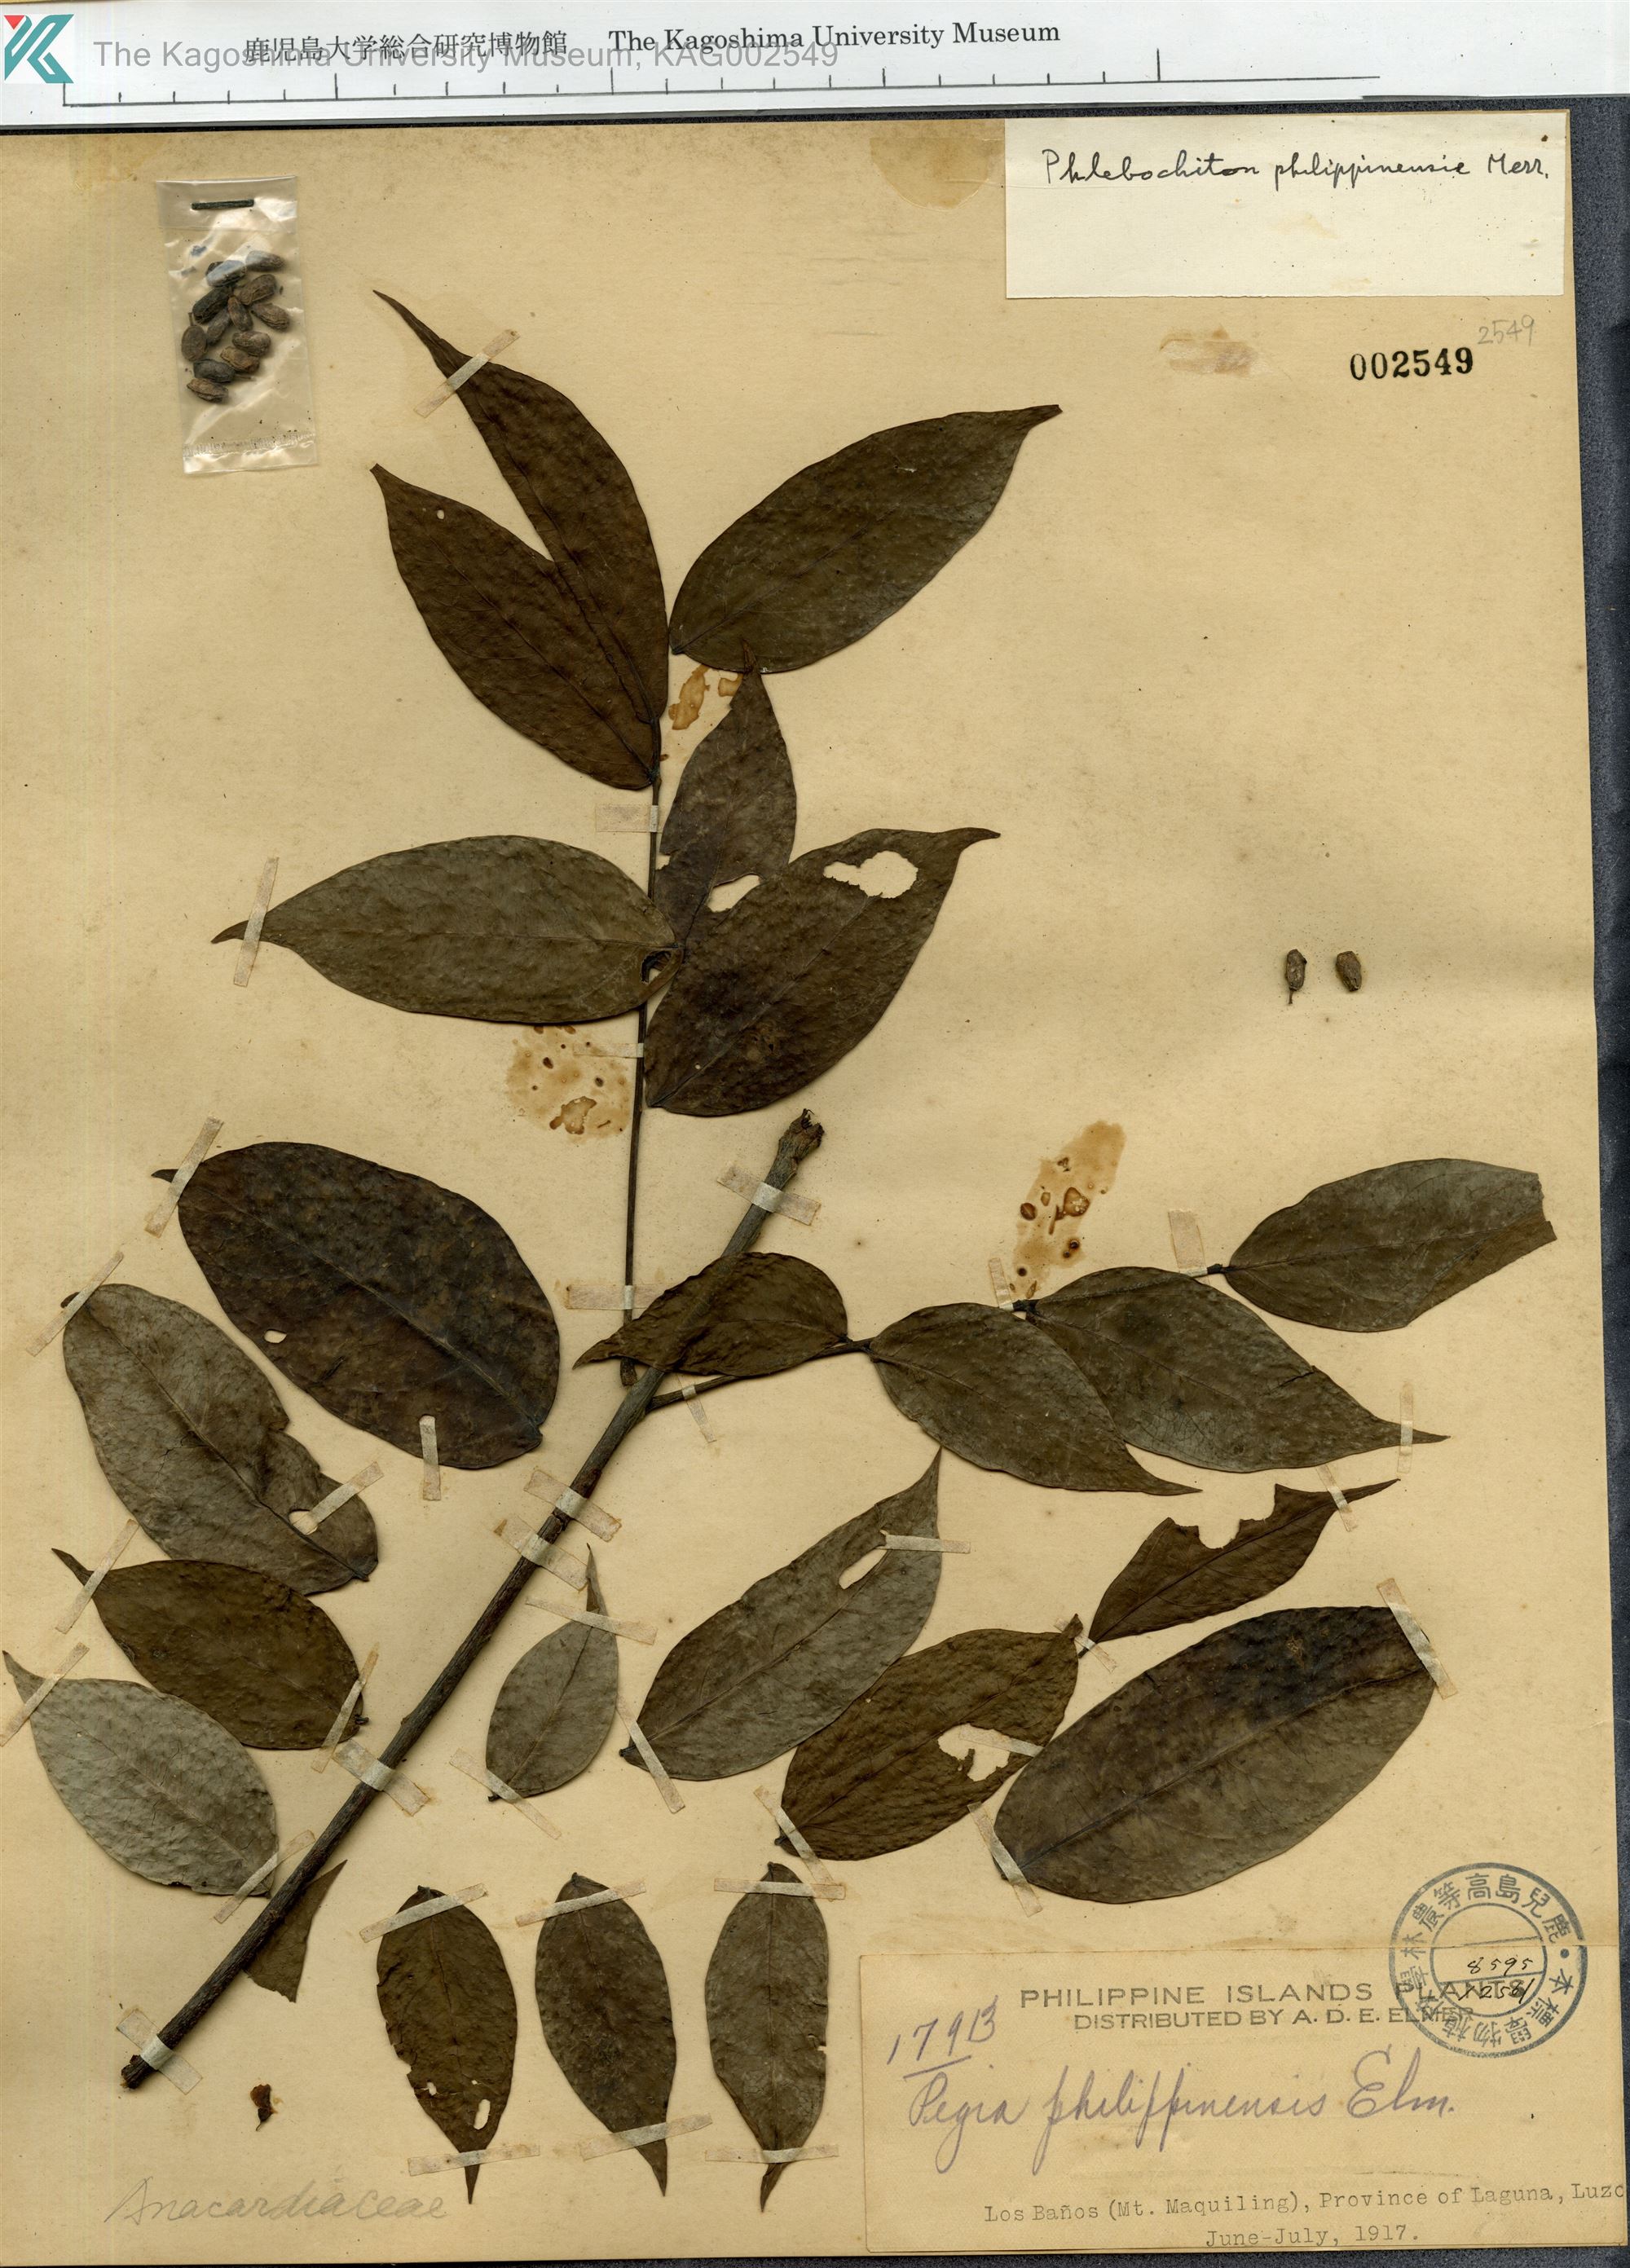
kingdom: Plantae
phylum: Tracheophyta
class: Magnoliopsida
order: Sapindales
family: Anacardiaceae
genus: Spondias
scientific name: Spondias philippinensis
